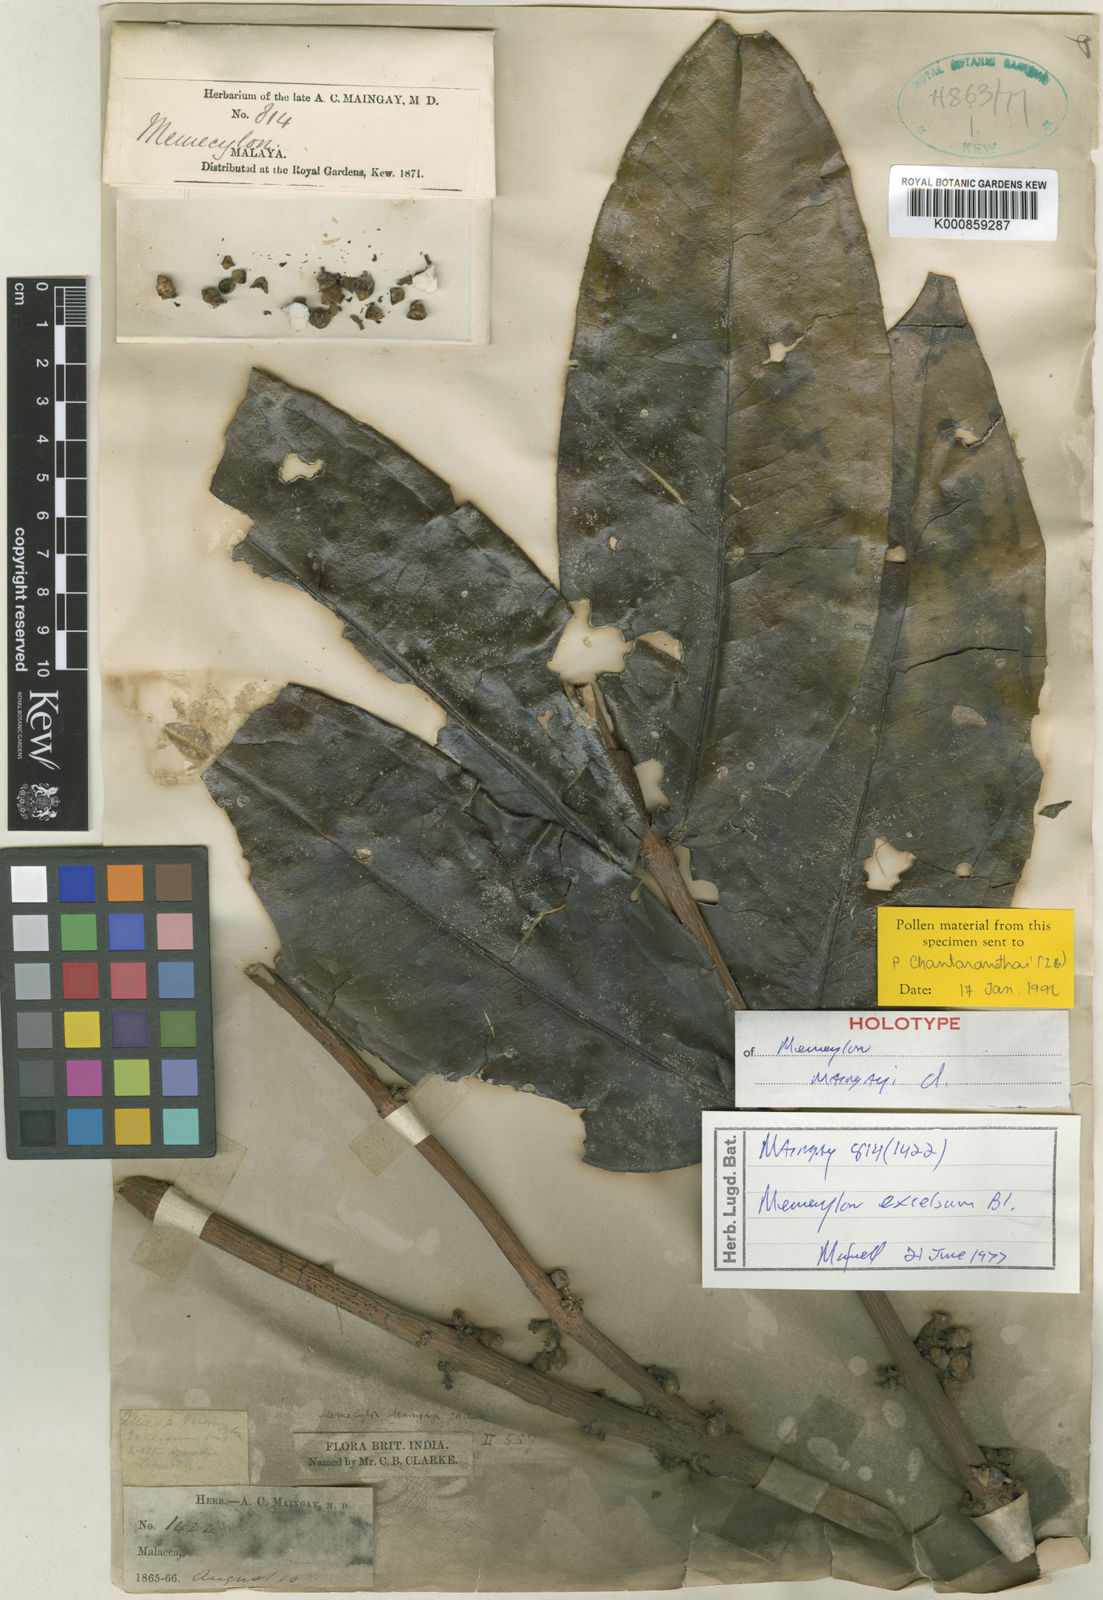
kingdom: Plantae
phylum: Tracheophyta
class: Magnoliopsida
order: Myrtales
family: Melastomataceae
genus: Memecylon
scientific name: Memecylon excelsum
